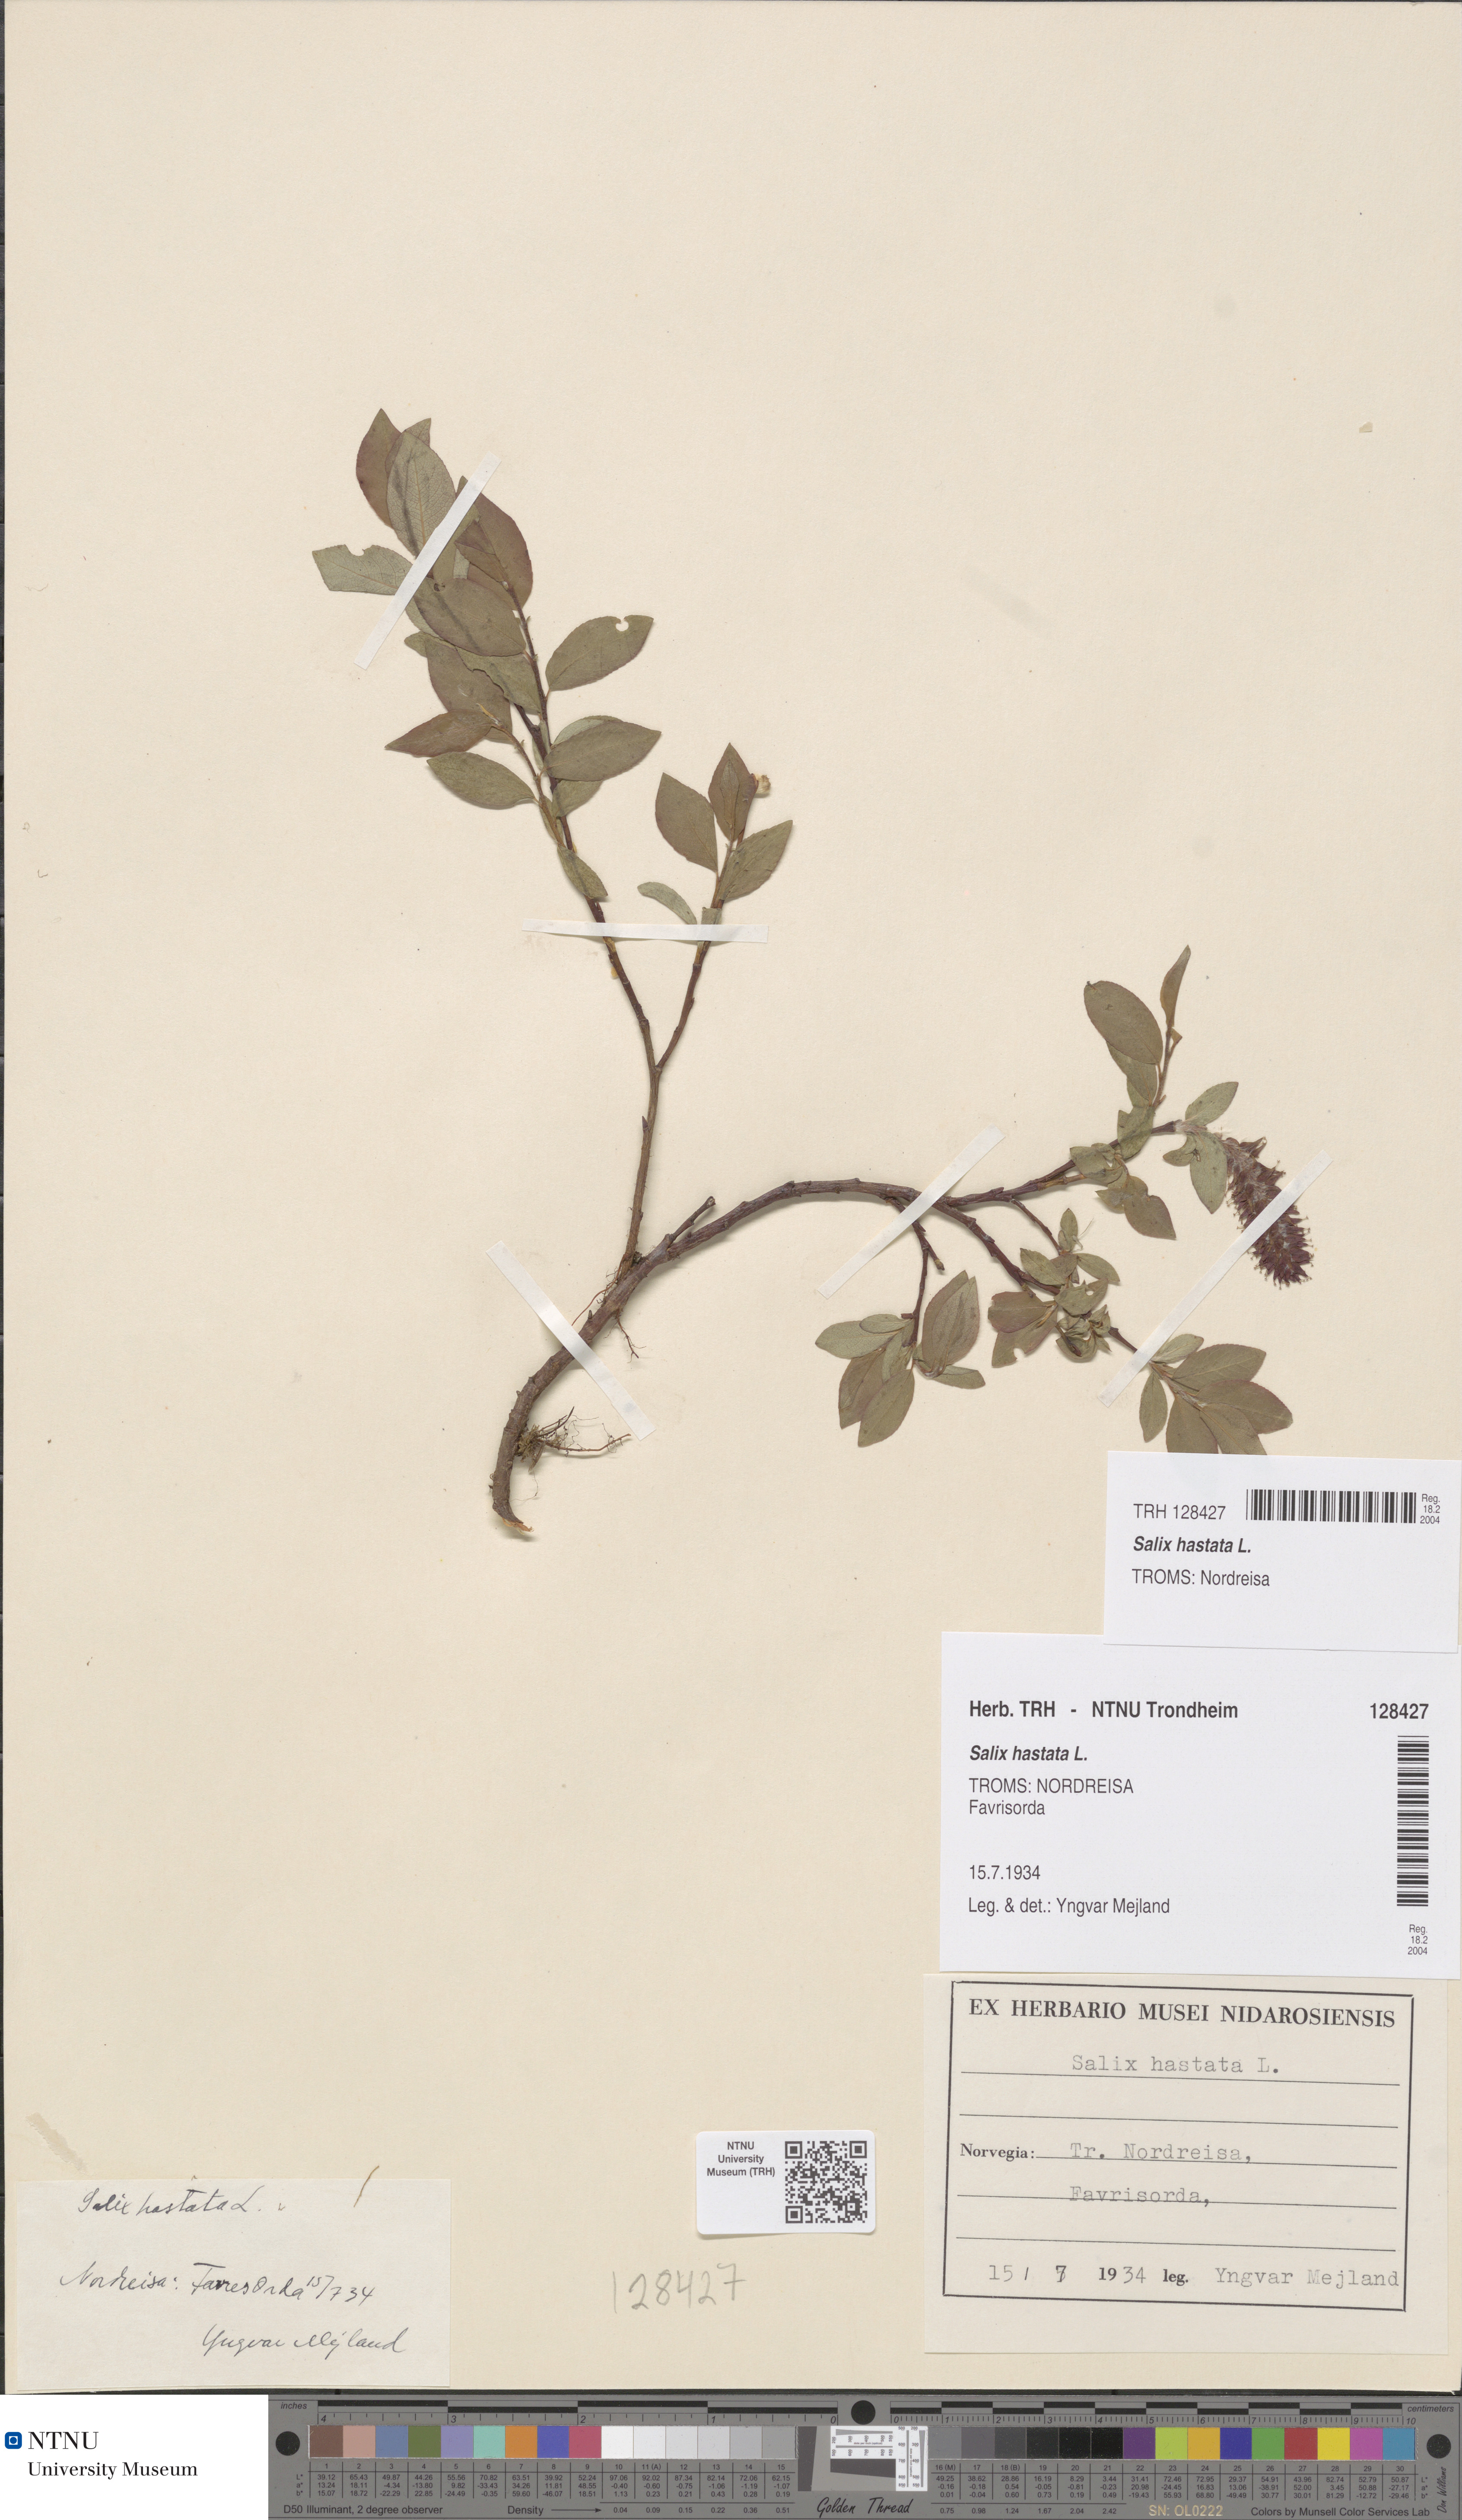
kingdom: Plantae
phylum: Tracheophyta
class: Magnoliopsida
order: Malpighiales
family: Salicaceae
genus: Salix
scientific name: Salix hastata
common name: Halberd willow
